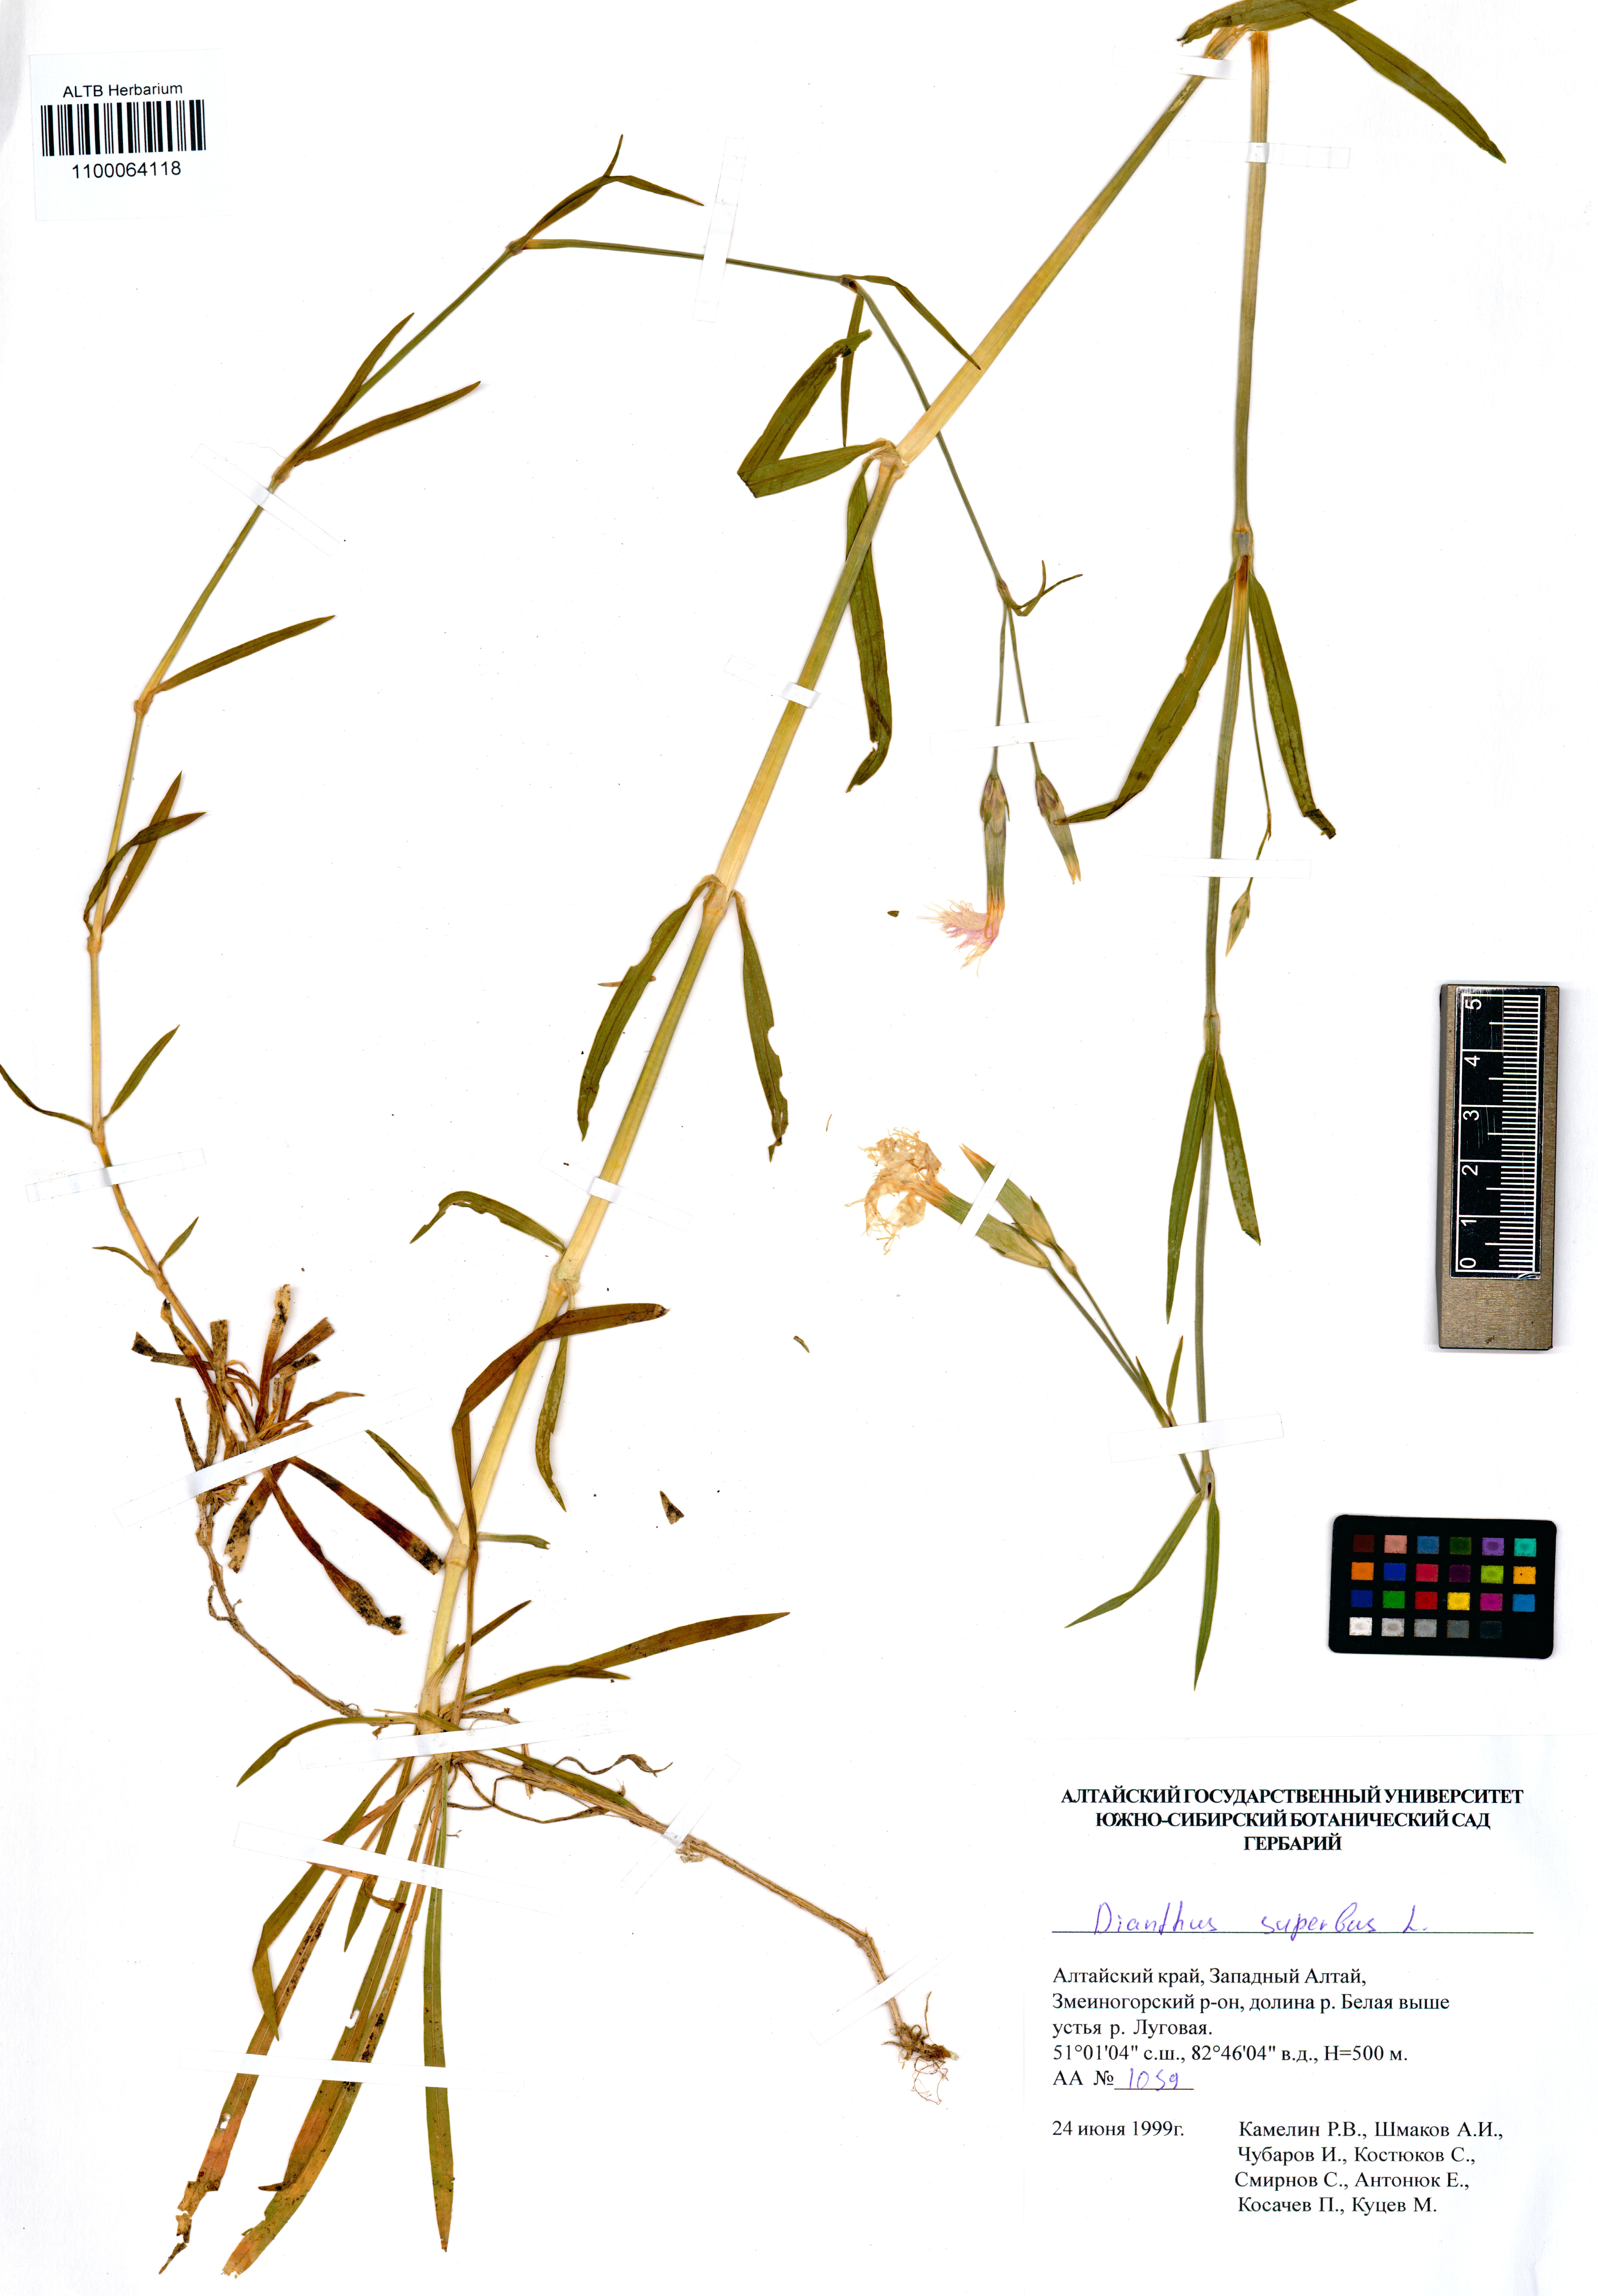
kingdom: Plantae
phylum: Tracheophyta
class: Magnoliopsida
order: Caryophyllales
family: Caryophyllaceae
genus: Dianthus
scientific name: Dianthus superbus
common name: Fringed pink
